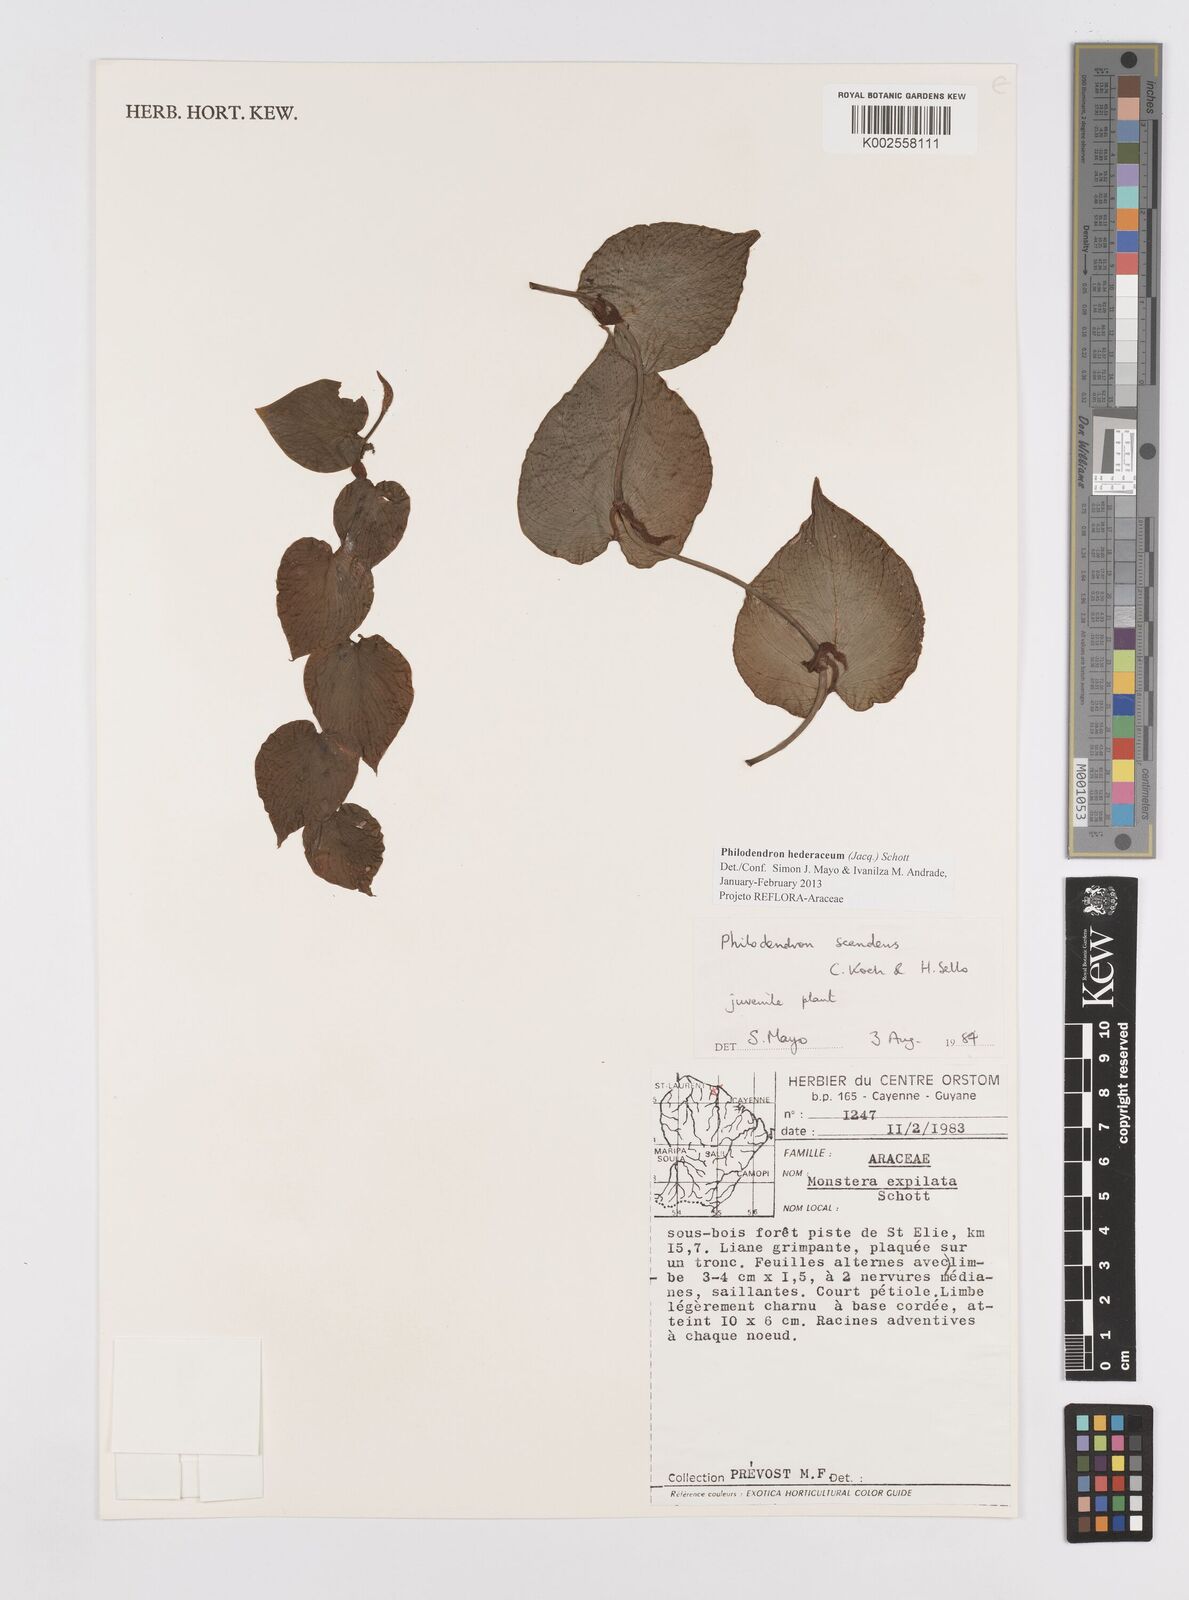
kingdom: Plantae
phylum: Tracheophyta
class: Liliopsida
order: Alismatales
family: Araceae
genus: Philodendron
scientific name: Philodendron hederaceum
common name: Vilevine
